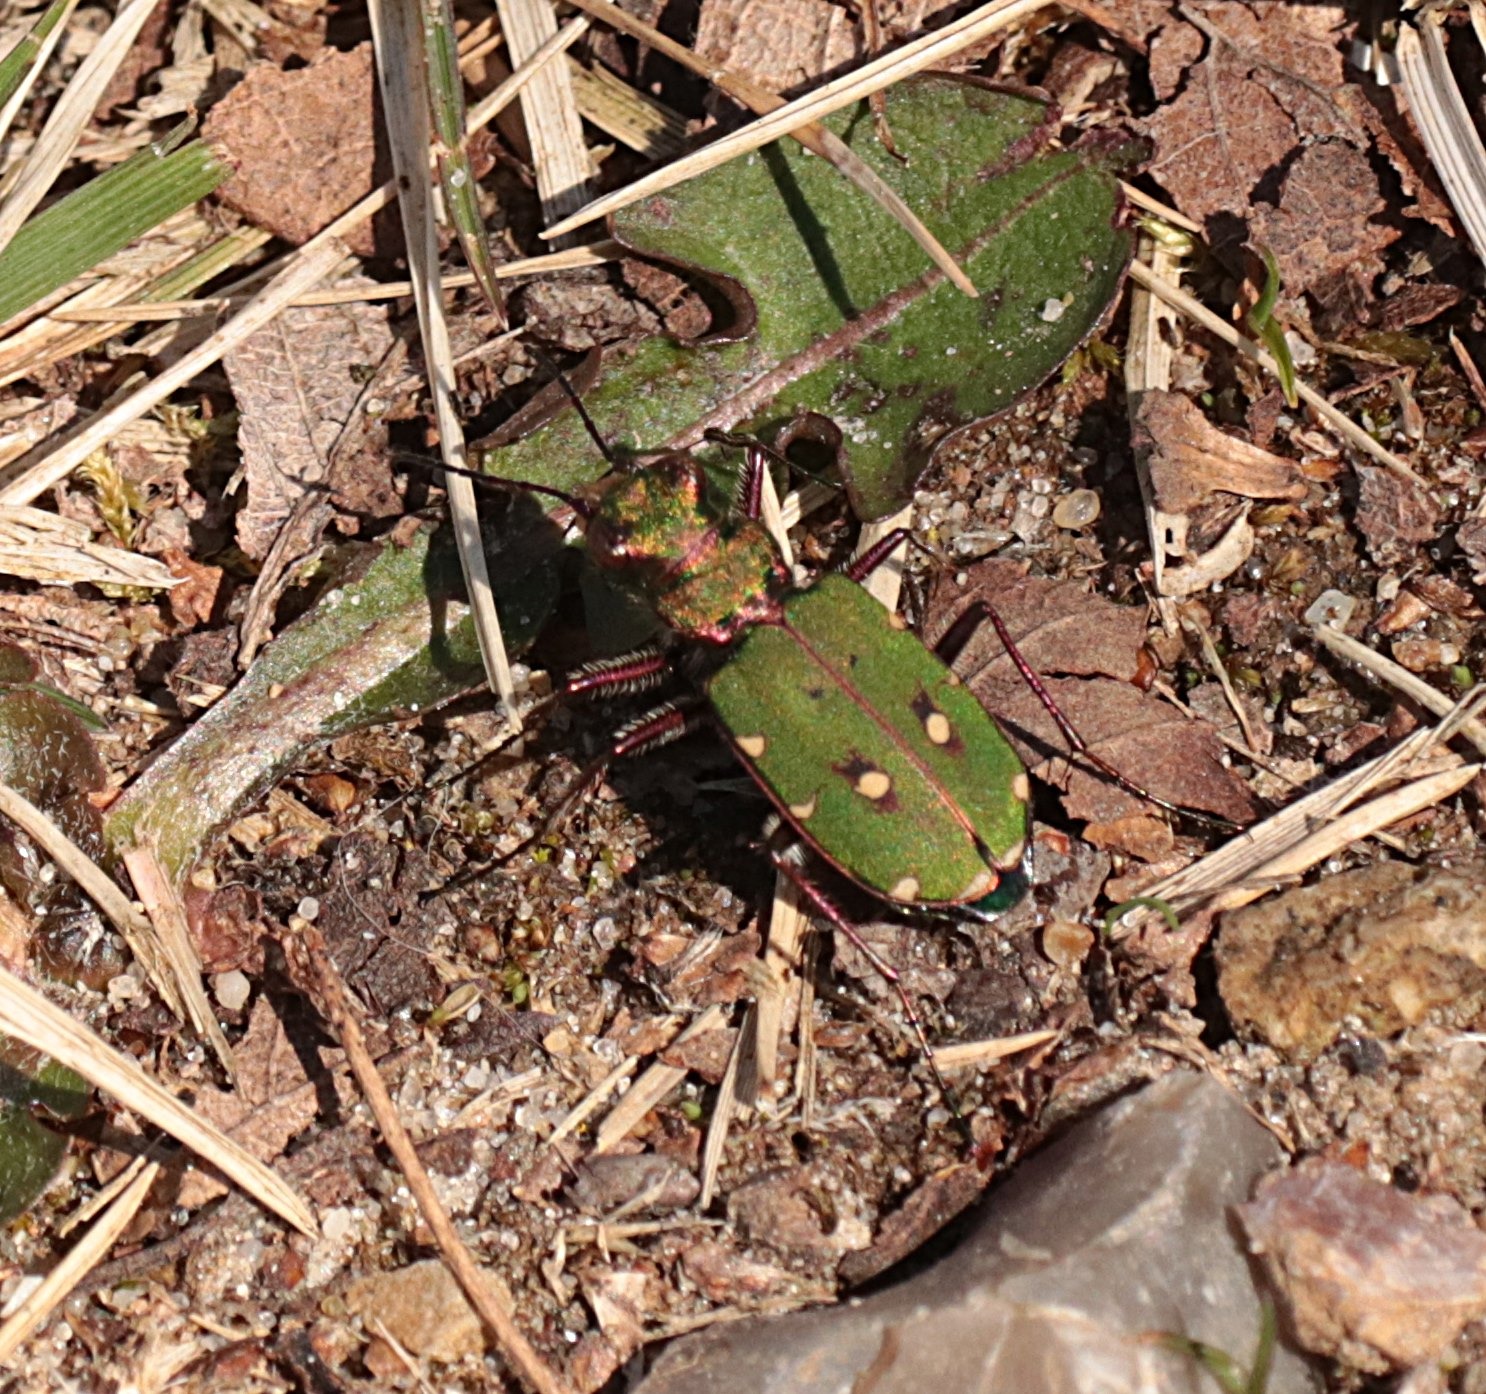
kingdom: Animalia
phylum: Arthropoda
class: Insecta
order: Coleoptera
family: Carabidae
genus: Cicindela
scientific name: Cicindela campestris
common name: Grøn sandspringer
